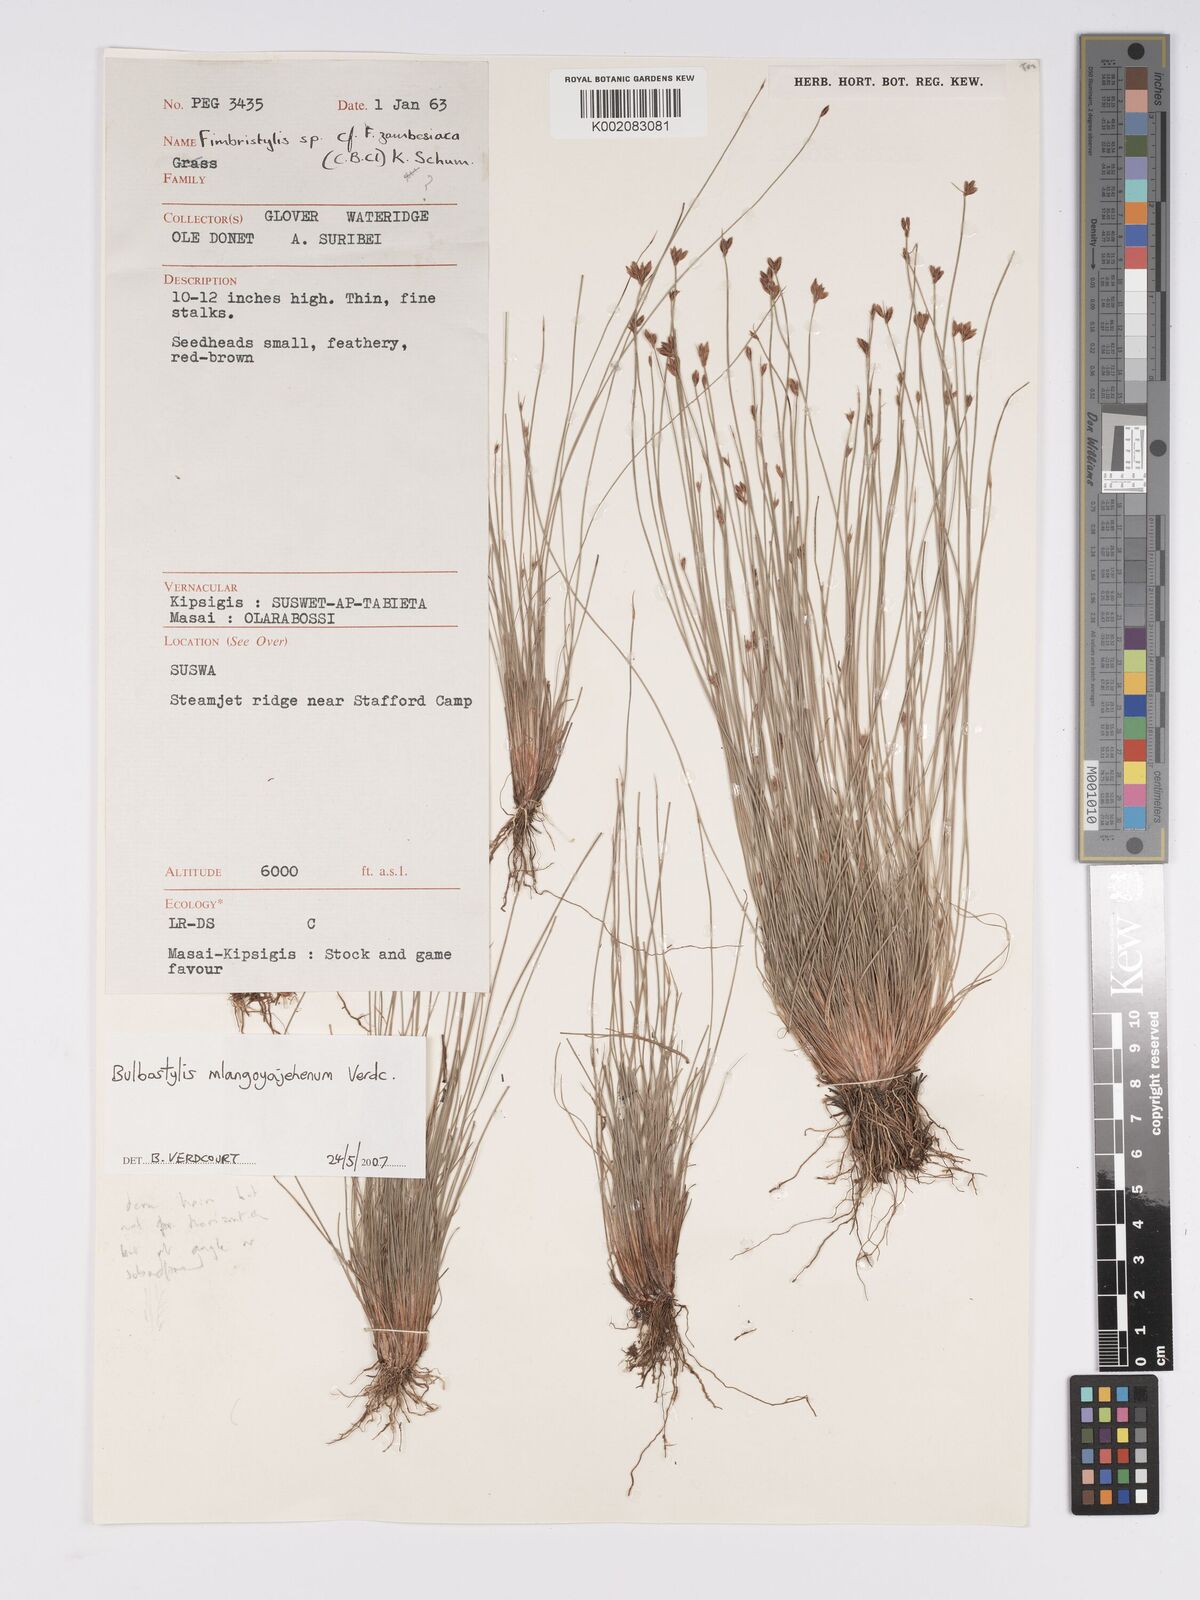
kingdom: Plantae
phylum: Tracheophyta
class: Liliopsida
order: Poales
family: Cyperaceae
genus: Bulbostylis
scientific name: Bulbostylis mlangoyajehenum
